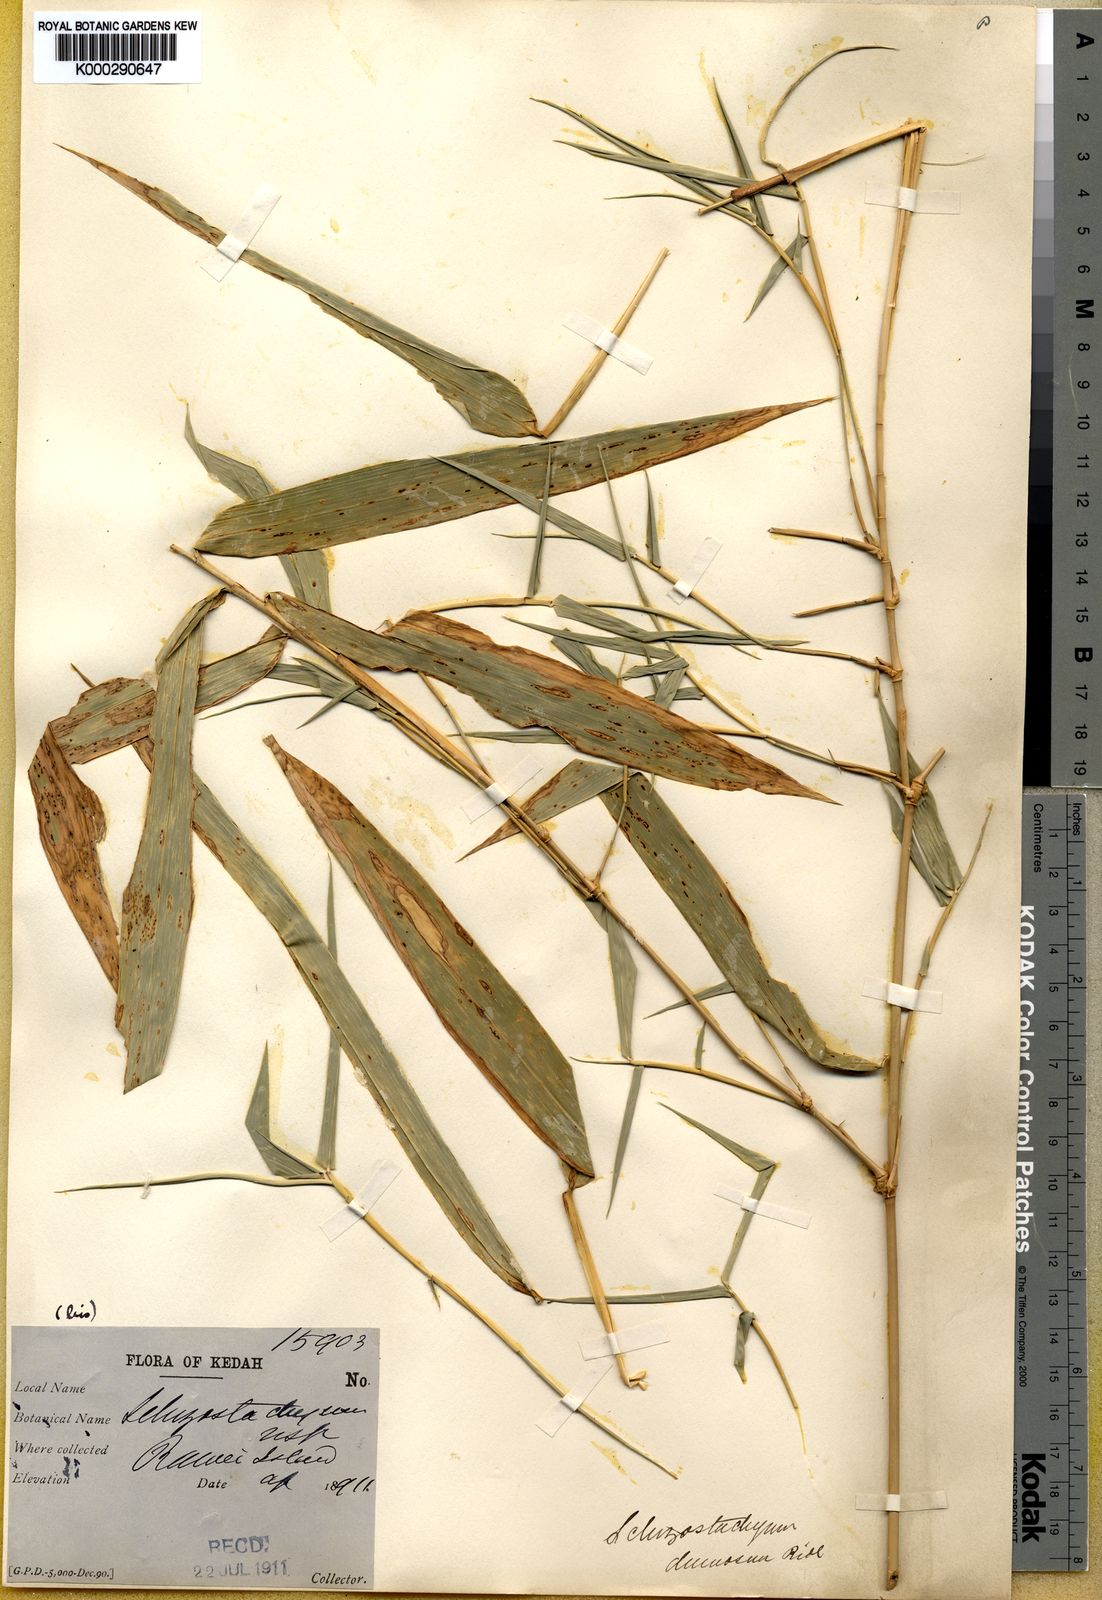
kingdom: Plantae
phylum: Tracheophyta
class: Liliopsida
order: Poales
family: Poaceae
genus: Dendrocalamus
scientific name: Dendrocalamus dumosus
